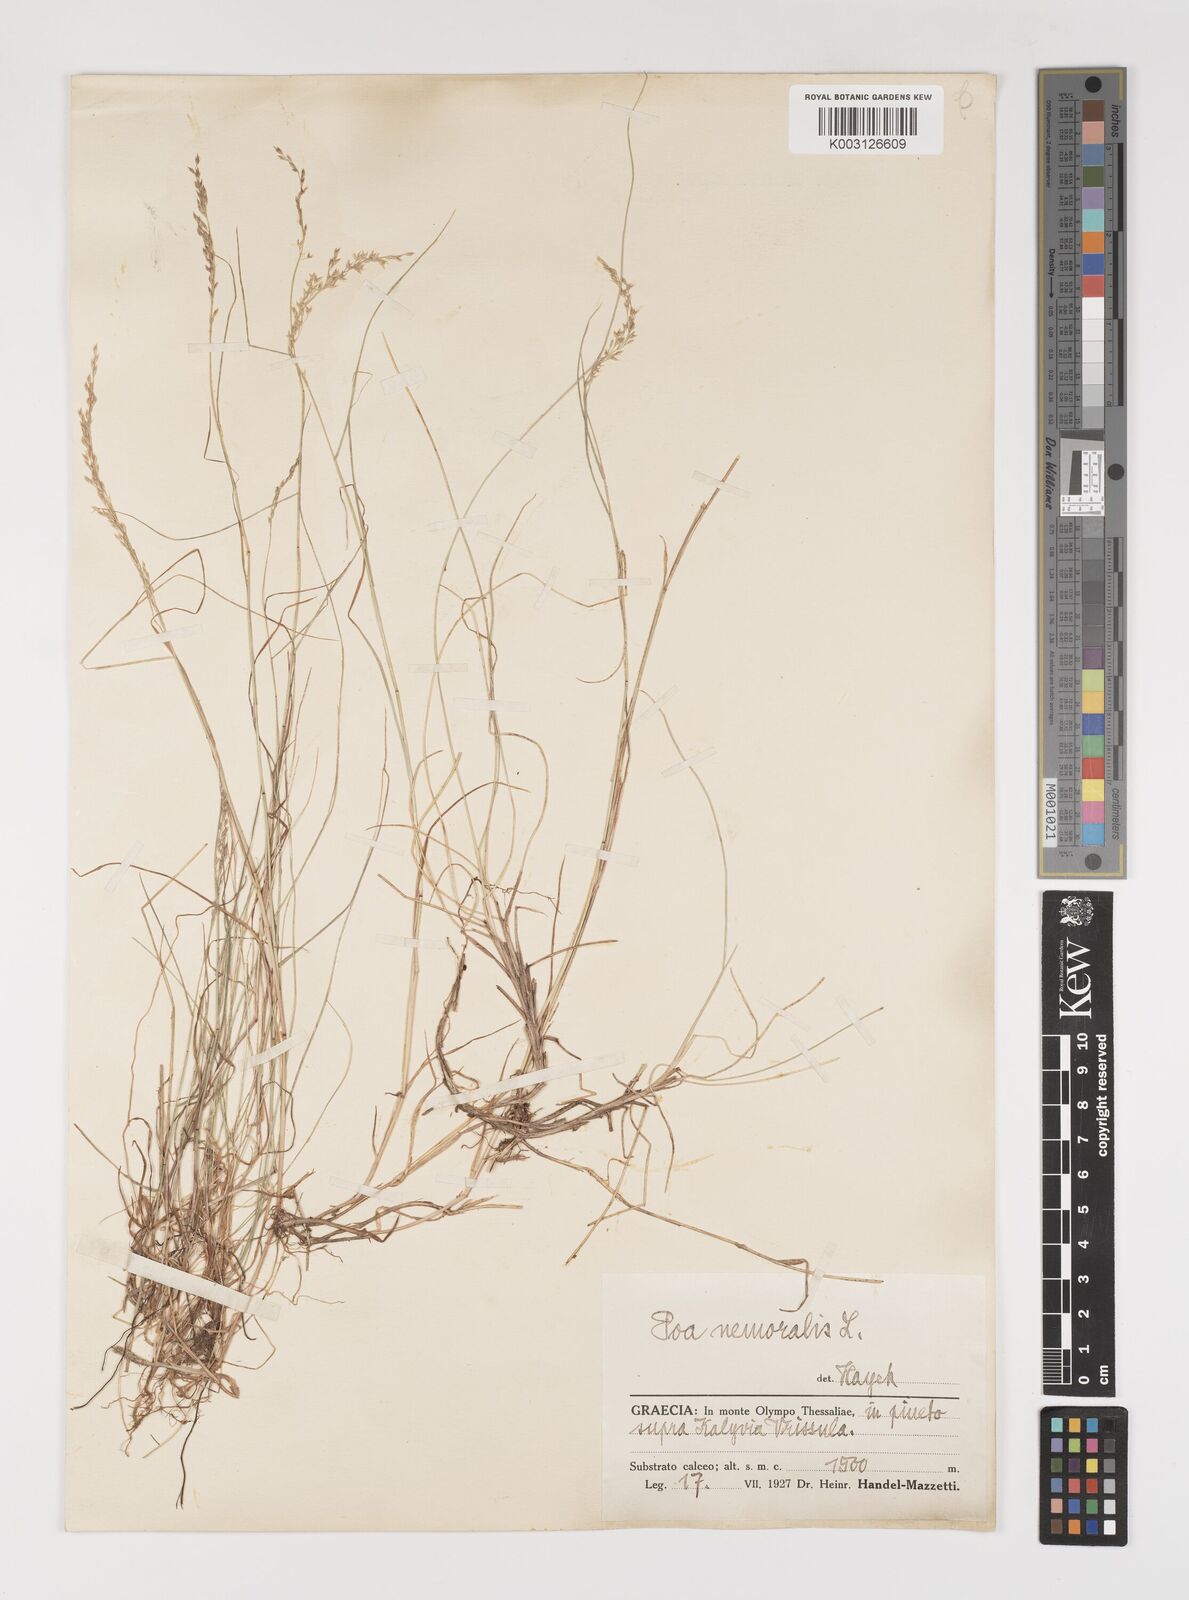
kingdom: Plantae
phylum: Tracheophyta
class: Liliopsida
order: Poales
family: Poaceae
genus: Poa
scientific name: Poa nemoralis
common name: Wood bluegrass
